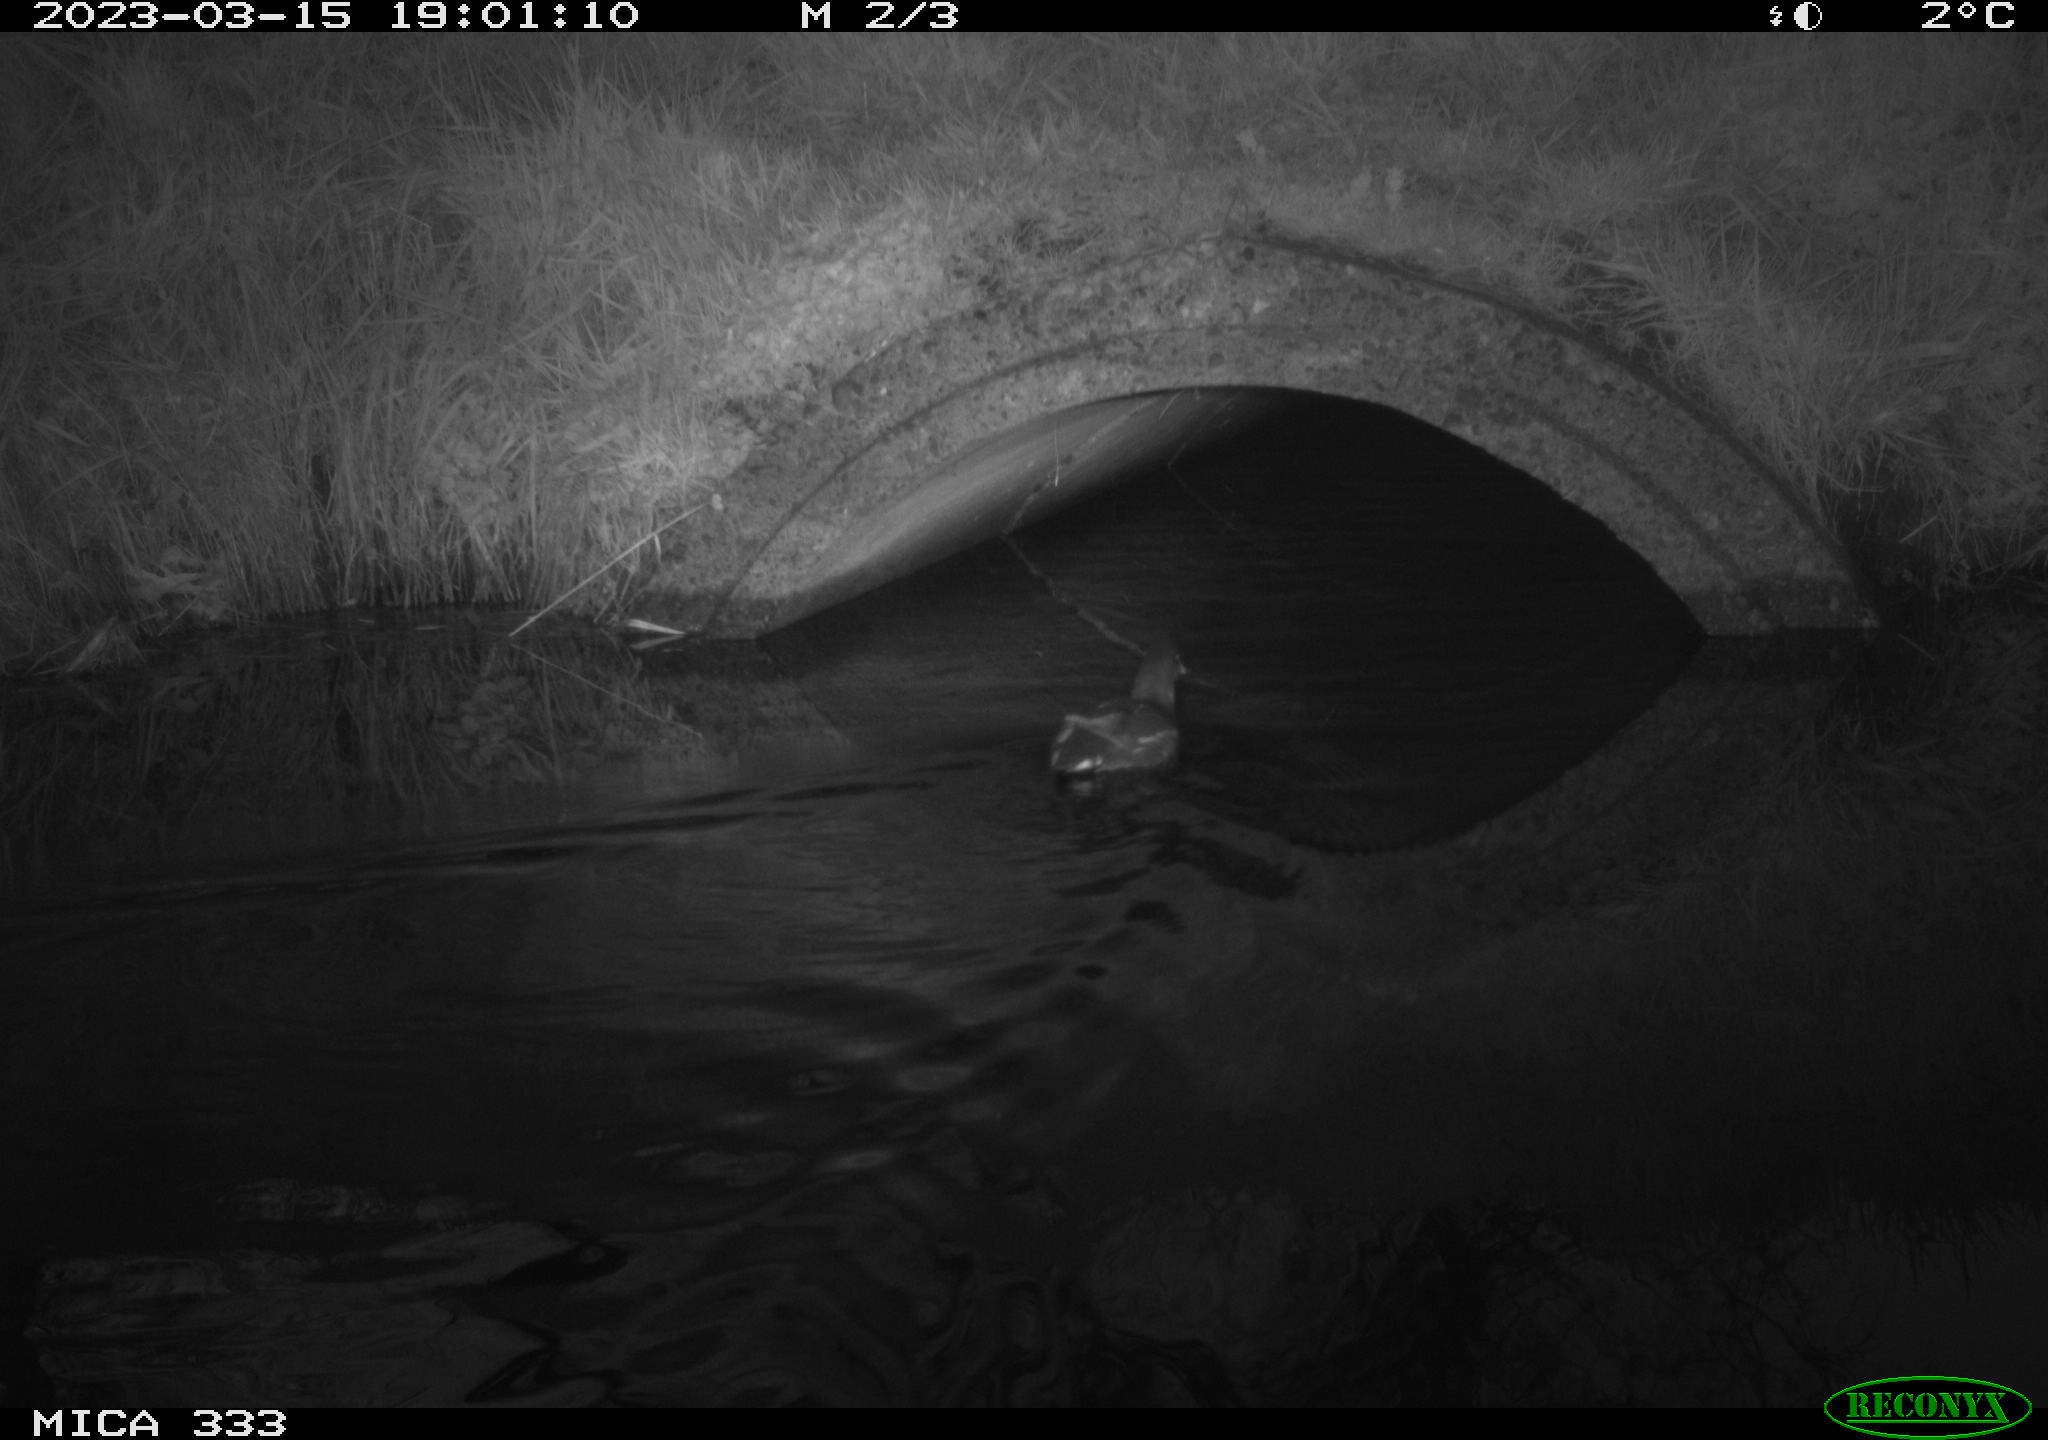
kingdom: Animalia
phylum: Chordata
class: Aves
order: Gruiformes
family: Rallidae
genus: Gallinula
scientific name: Gallinula chloropus
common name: Common moorhen
